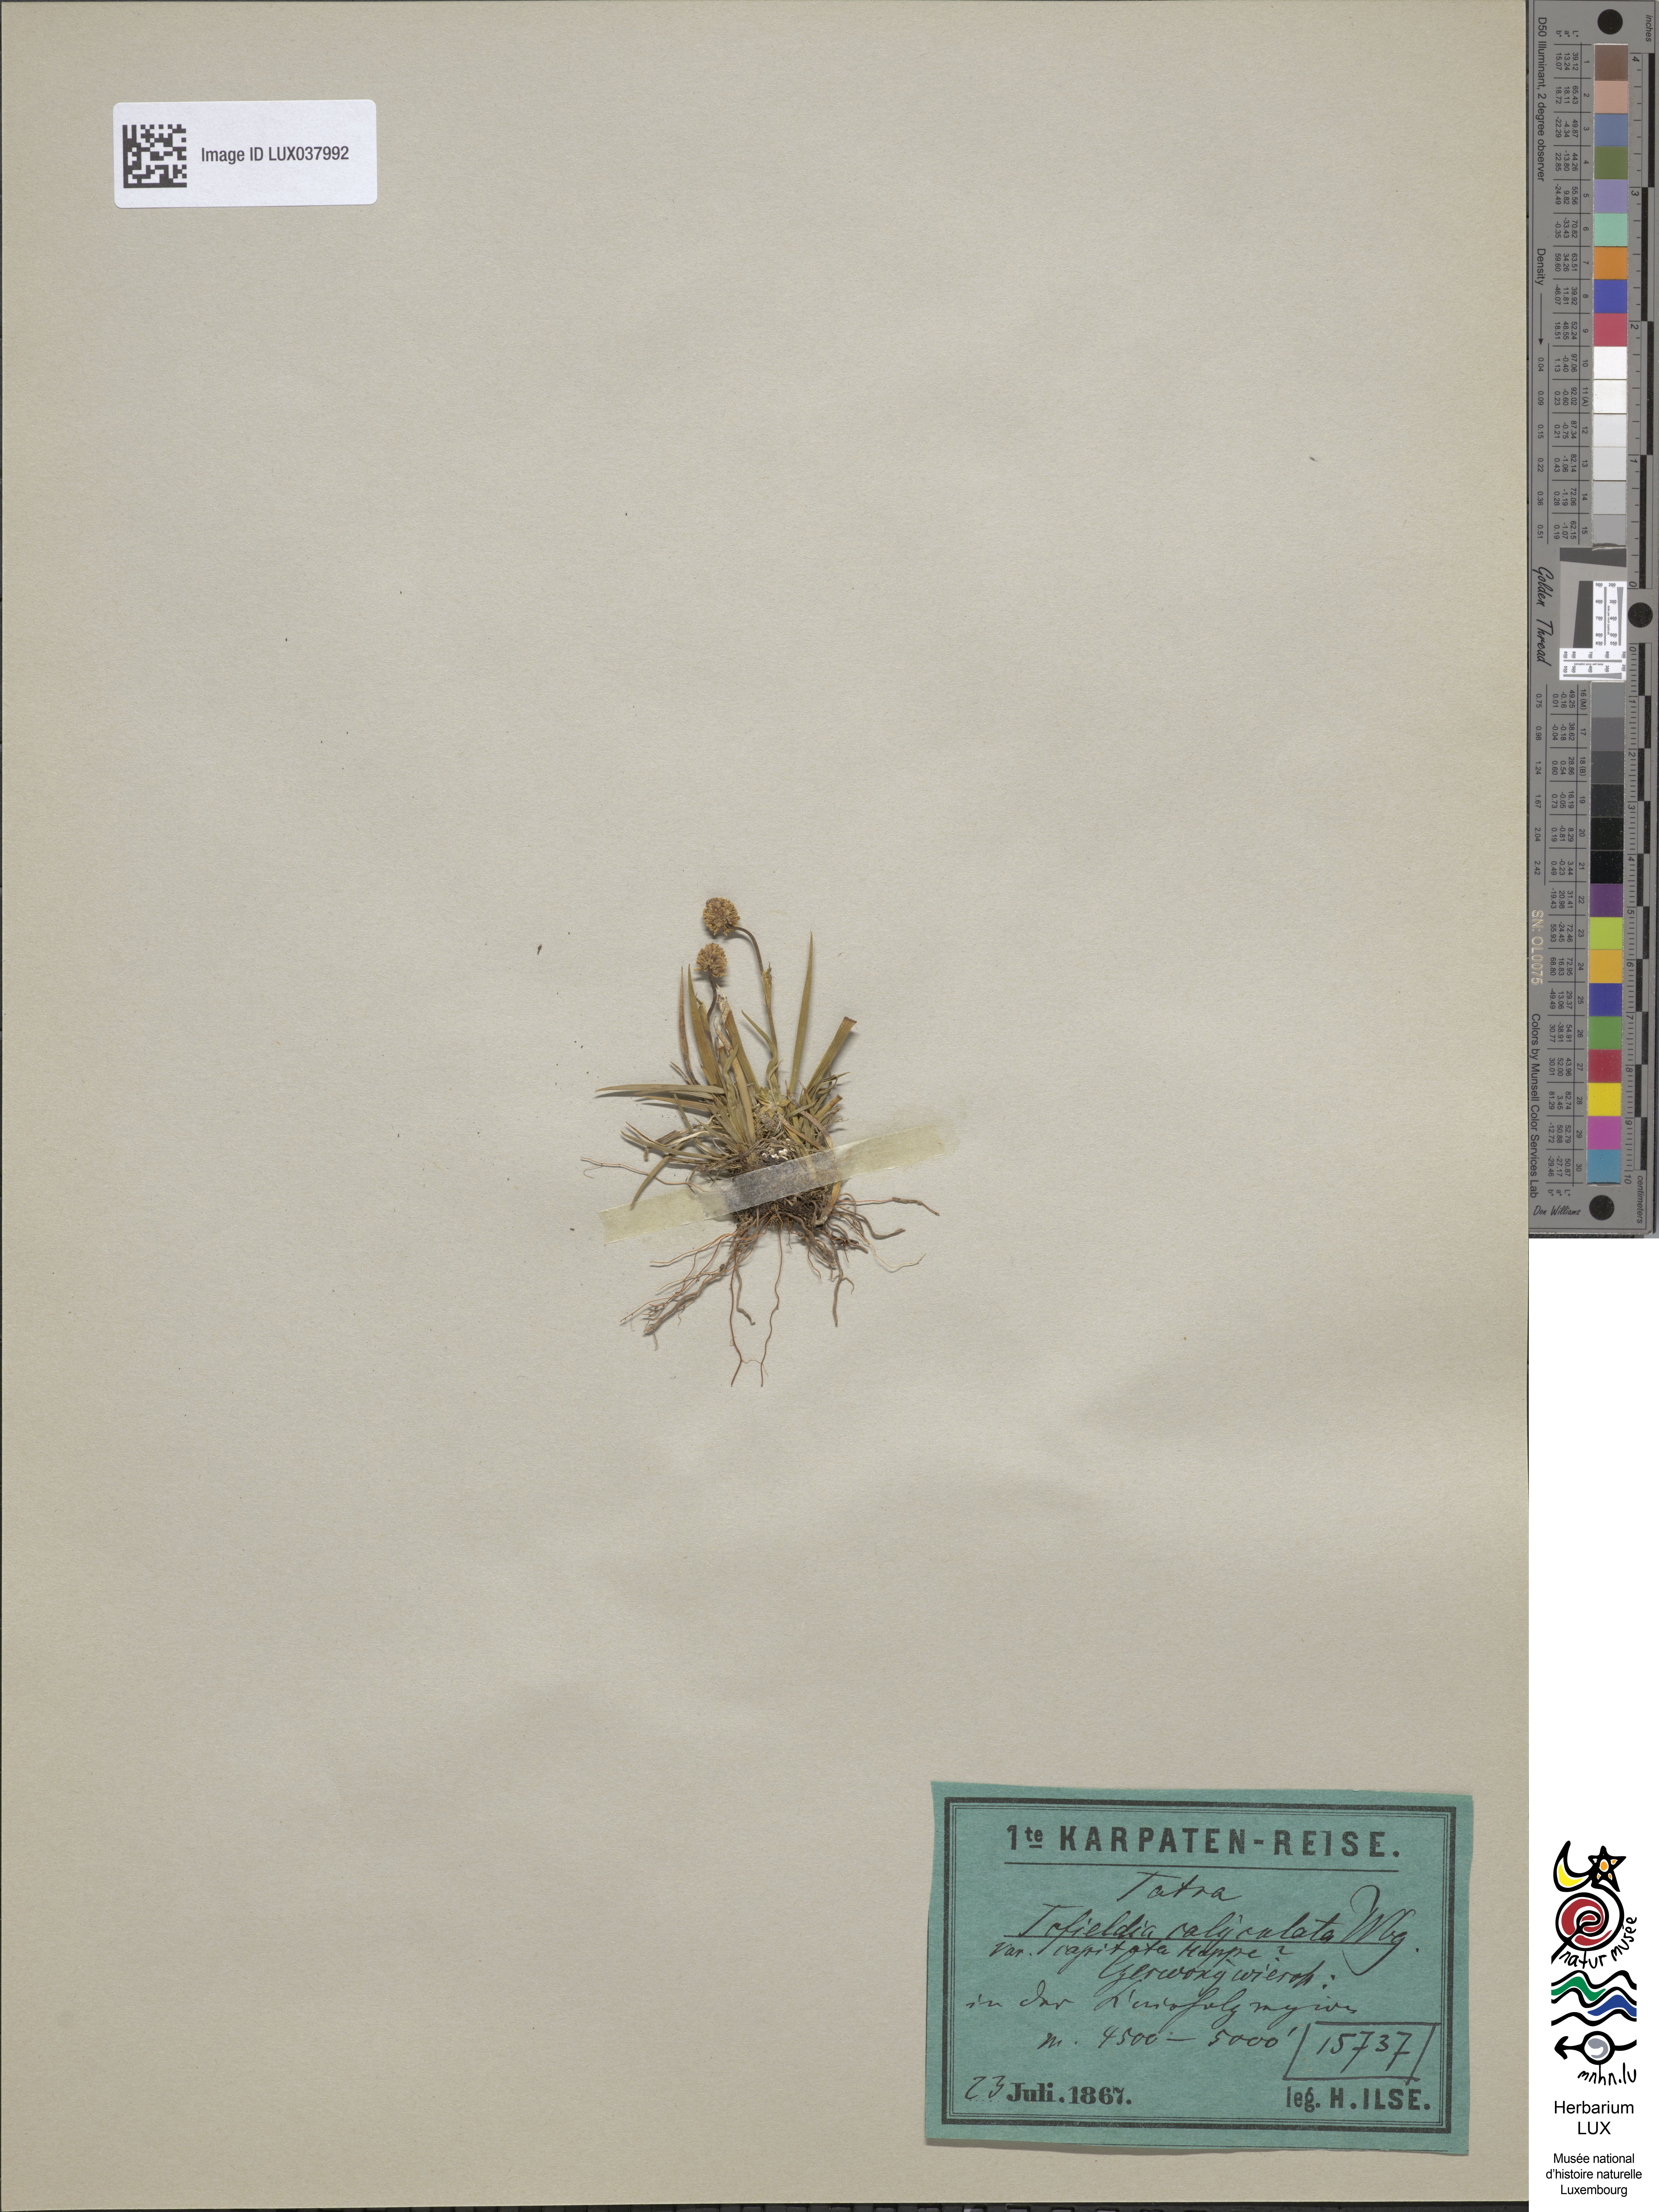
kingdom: Plantae
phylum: Tracheophyta
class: Liliopsida
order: Alismatales
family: Tofieldiaceae
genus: Tofieldia
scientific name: Tofieldia pusilla
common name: Scottish false asphodel
